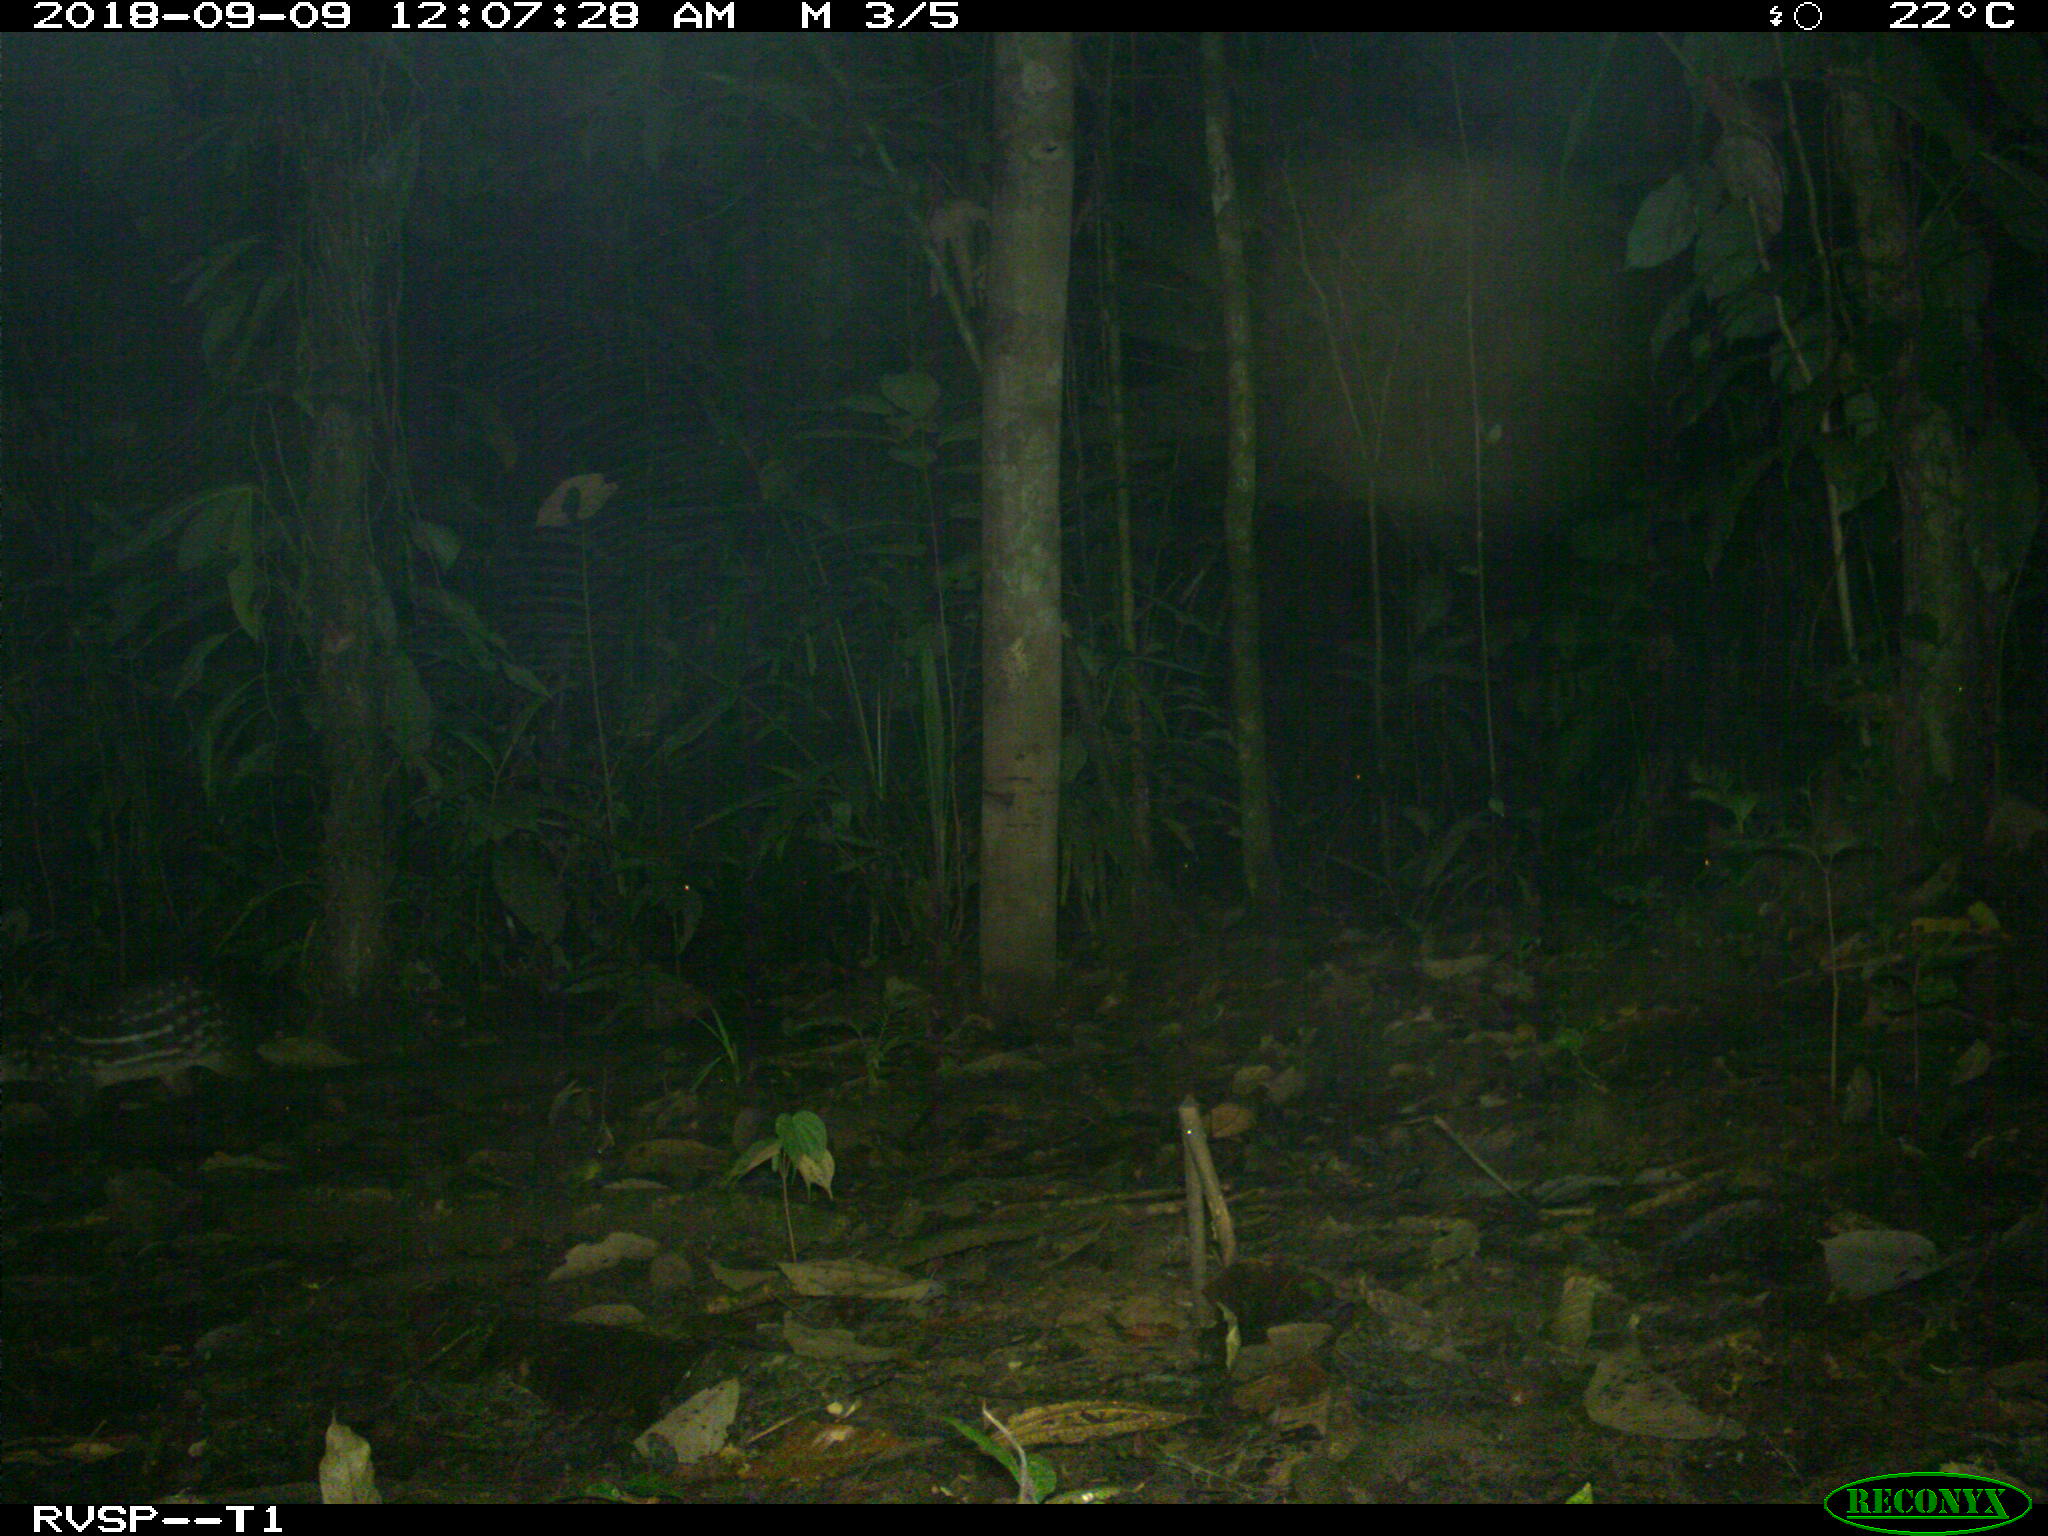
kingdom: Animalia
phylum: Chordata
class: Mammalia
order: Rodentia
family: Cuniculidae
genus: Cuniculus
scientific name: Cuniculus paca
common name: Lowland paca
